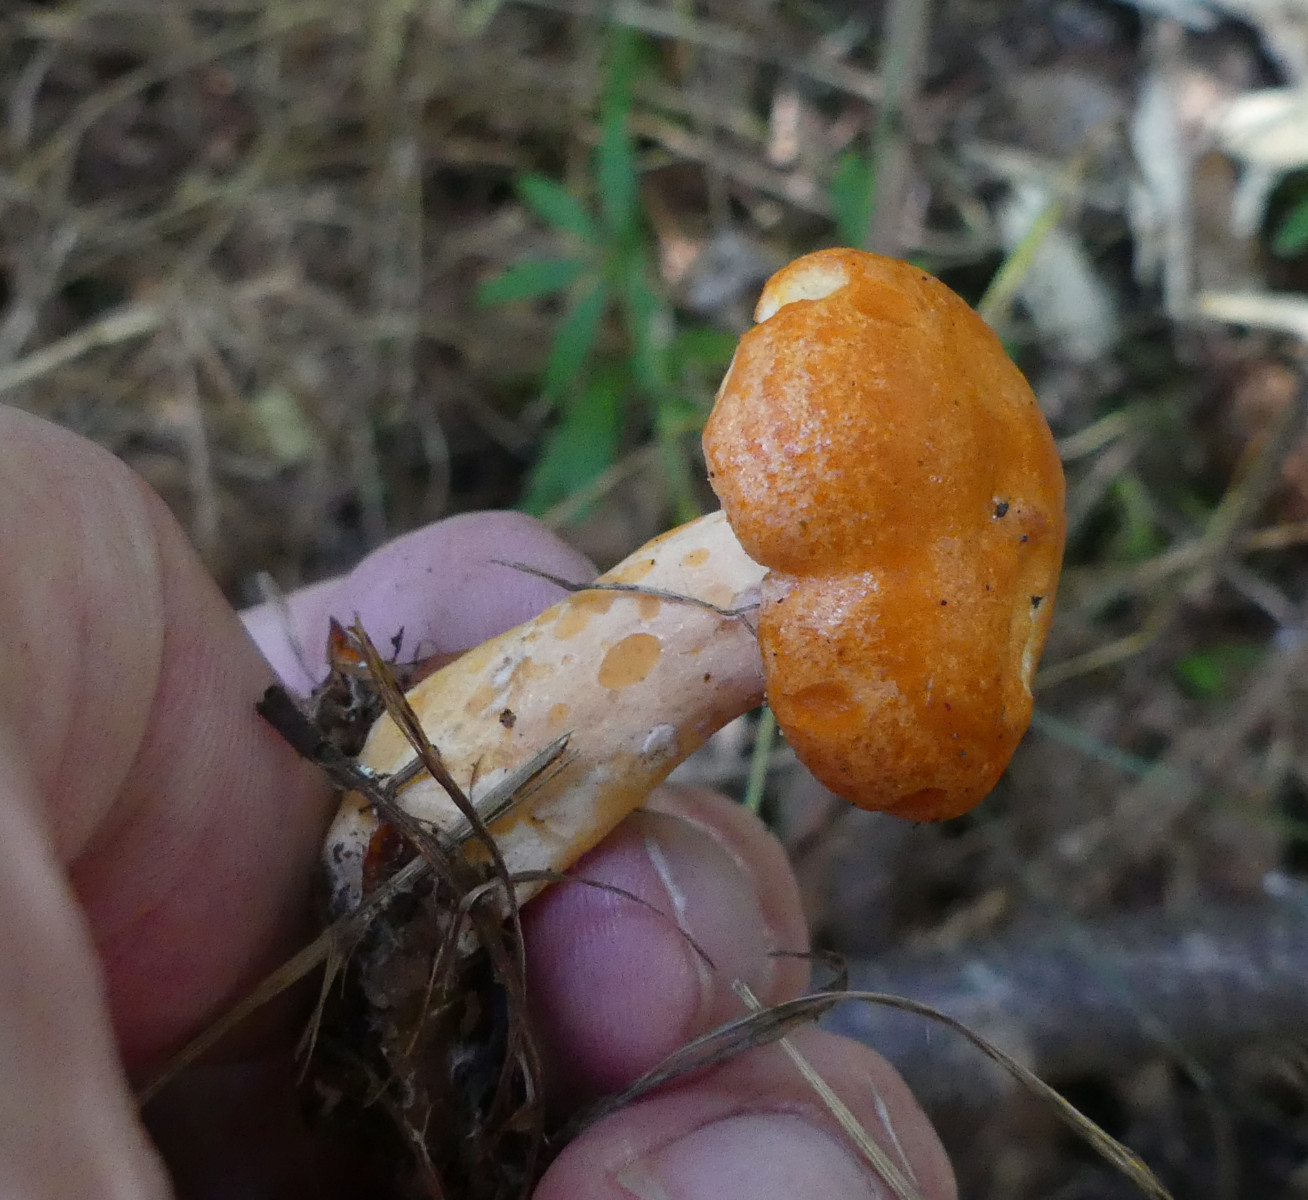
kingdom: Fungi
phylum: Basidiomycota
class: Agaricomycetes
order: Russulales
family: Russulaceae
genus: Lactarius
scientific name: Lactarius porninsis
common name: lærke-mælkehat
